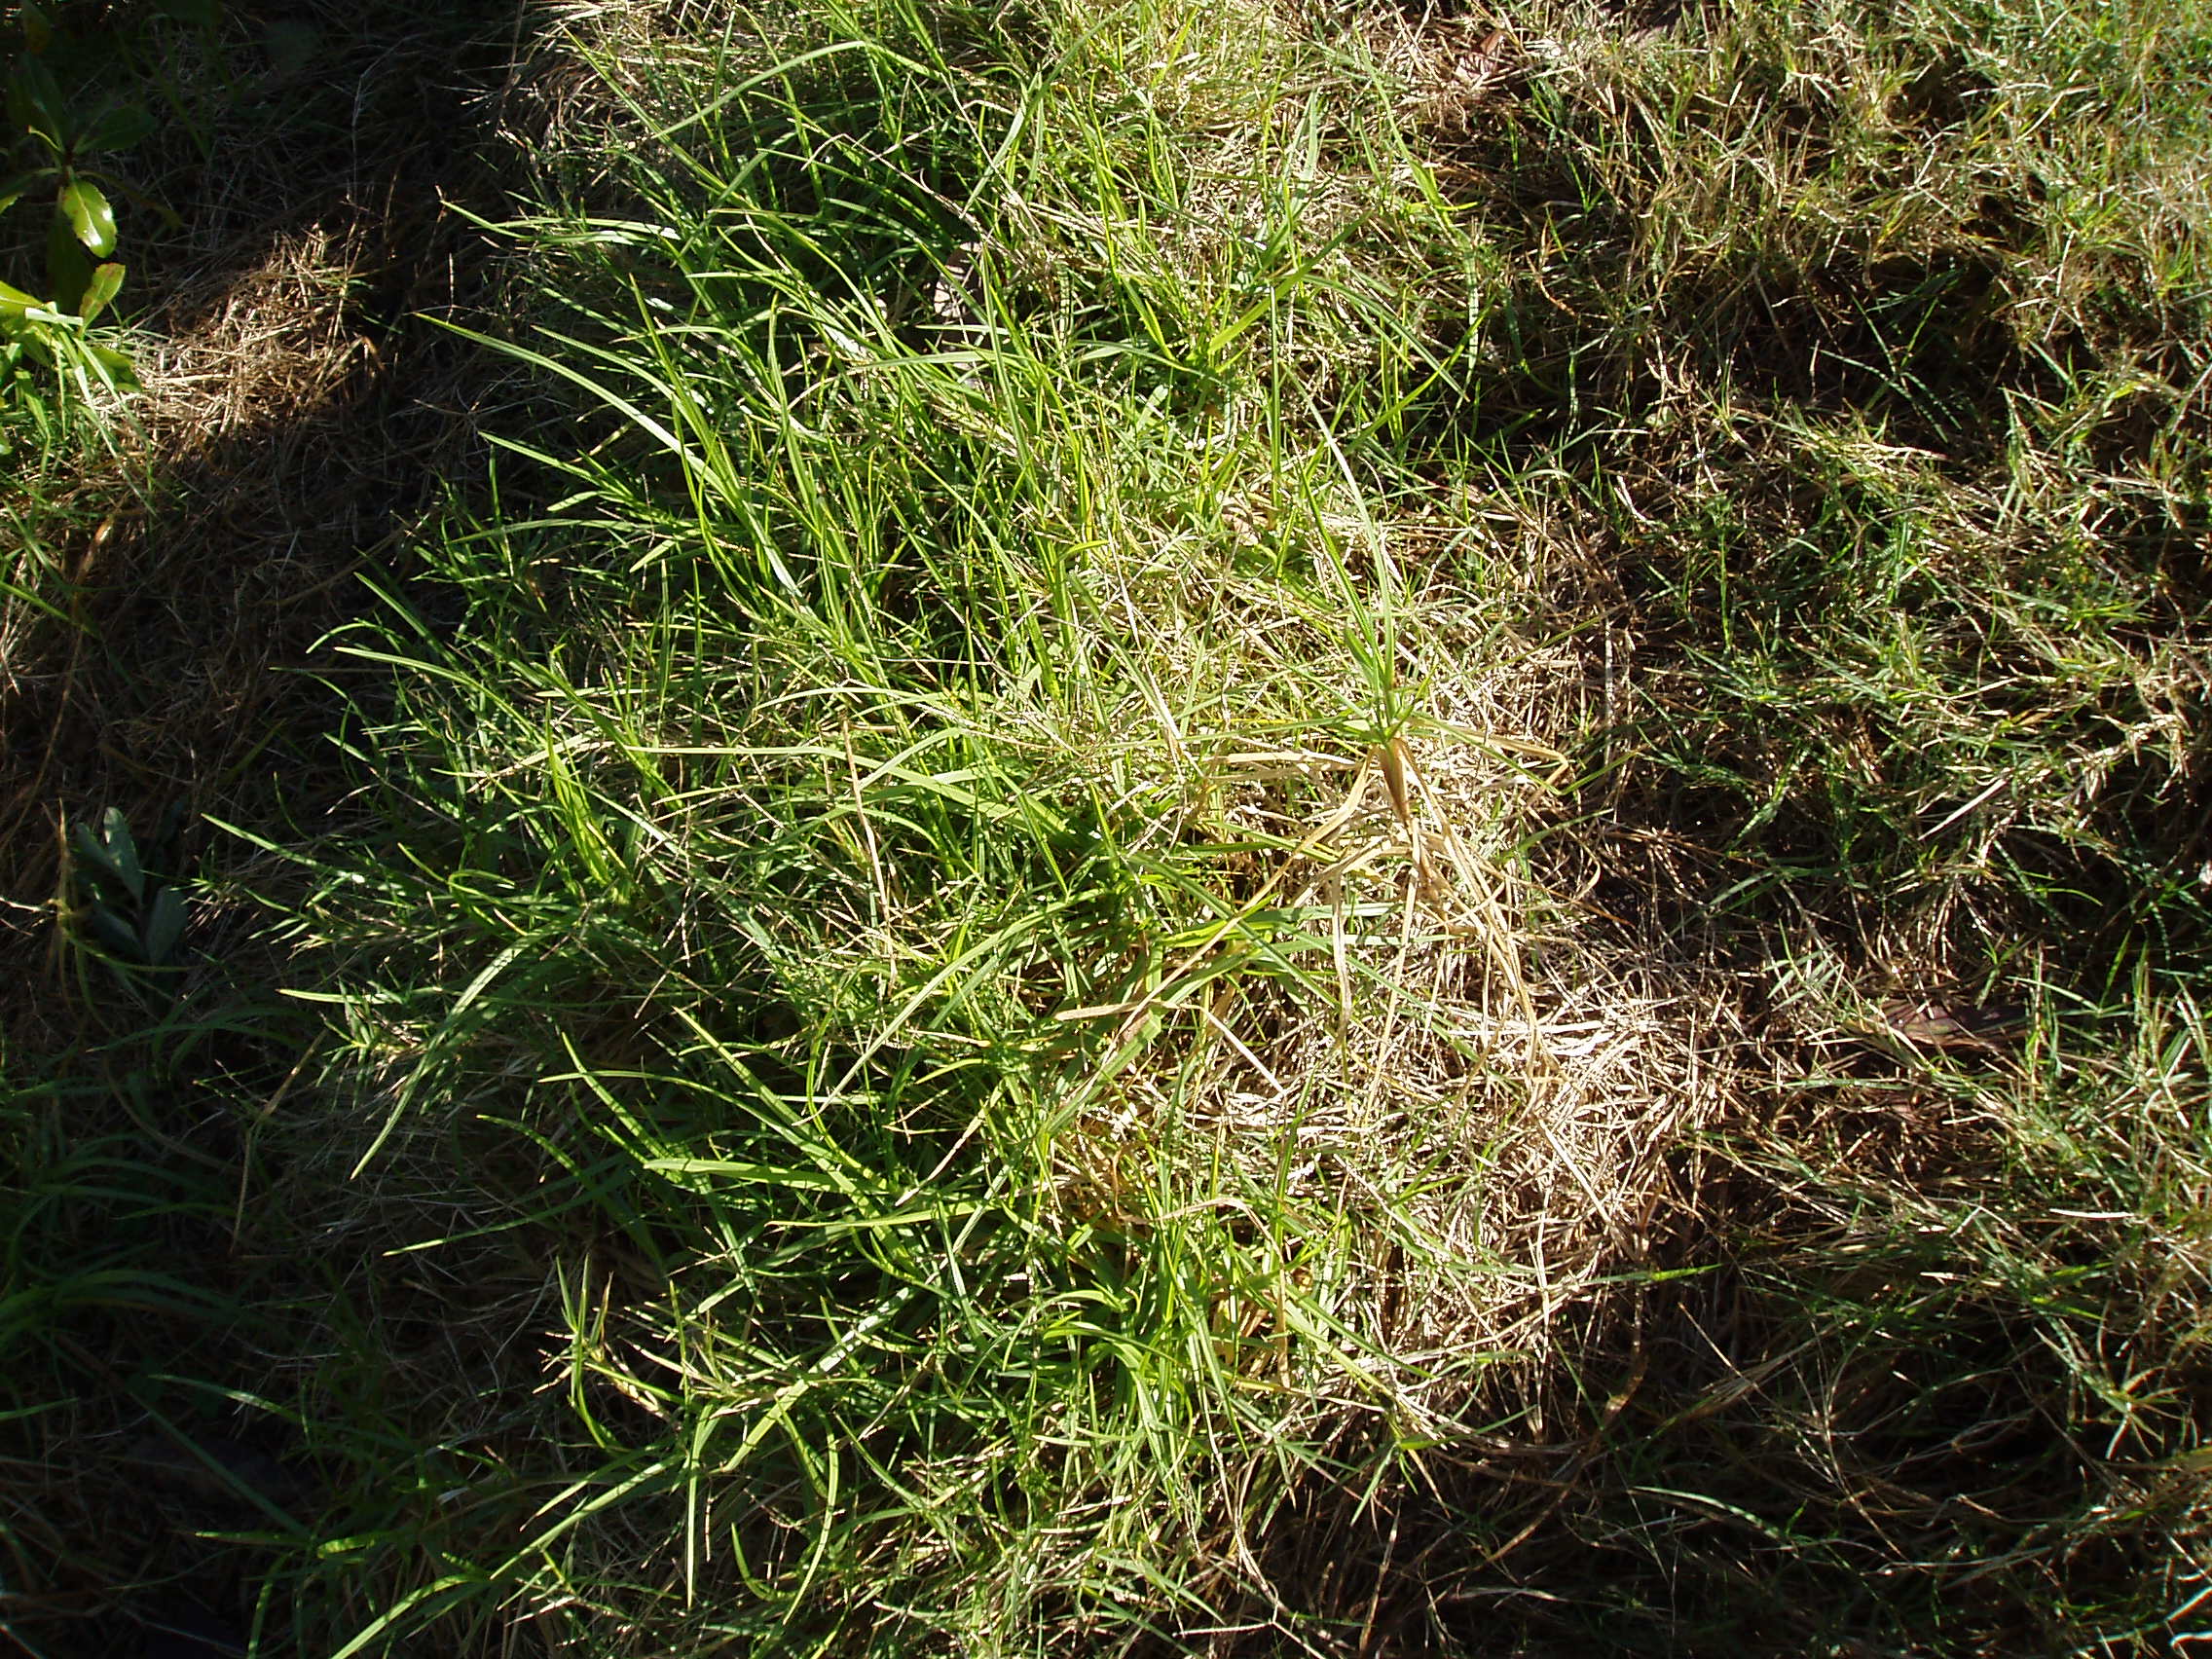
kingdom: Plantae
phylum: Tracheophyta
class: Liliopsida
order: Poales
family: Poaceae
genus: Cenchrus
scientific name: Cenchrus clandestinus
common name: Kikuyugrass
